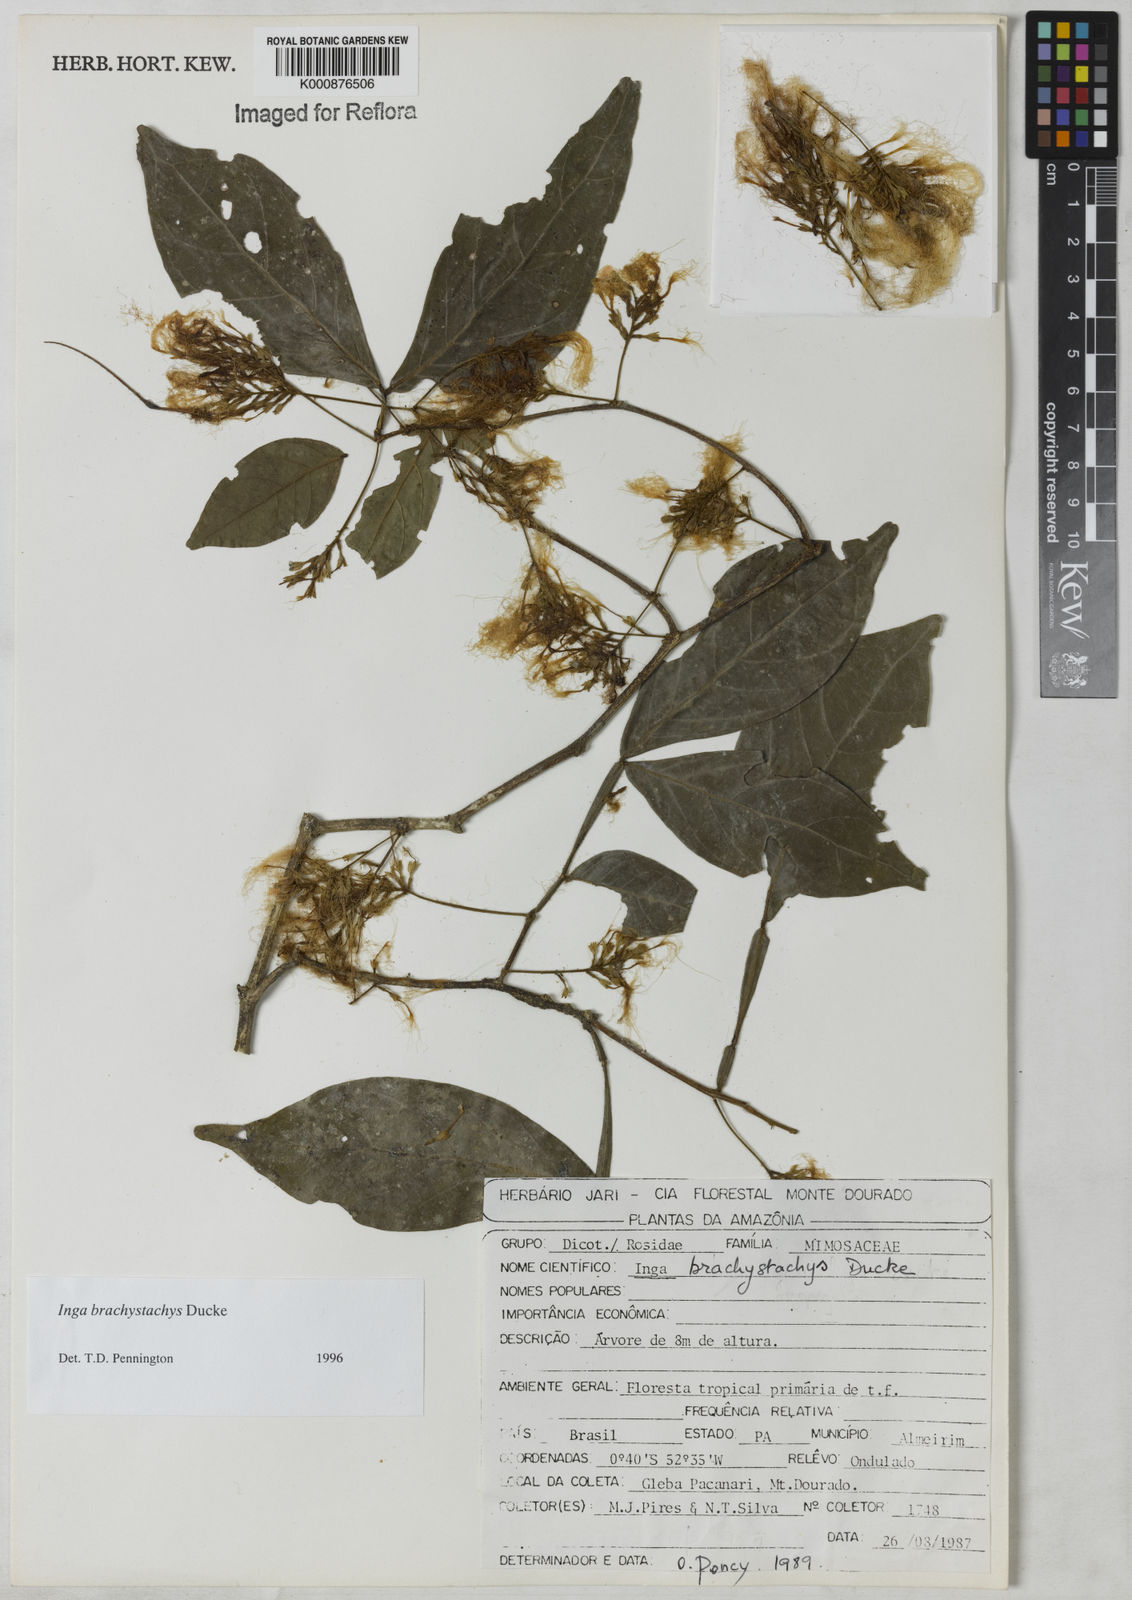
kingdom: Plantae
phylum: Tracheophyta
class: Magnoliopsida
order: Fabales
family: Fabaceae
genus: Inga
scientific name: Inga brachystachys
